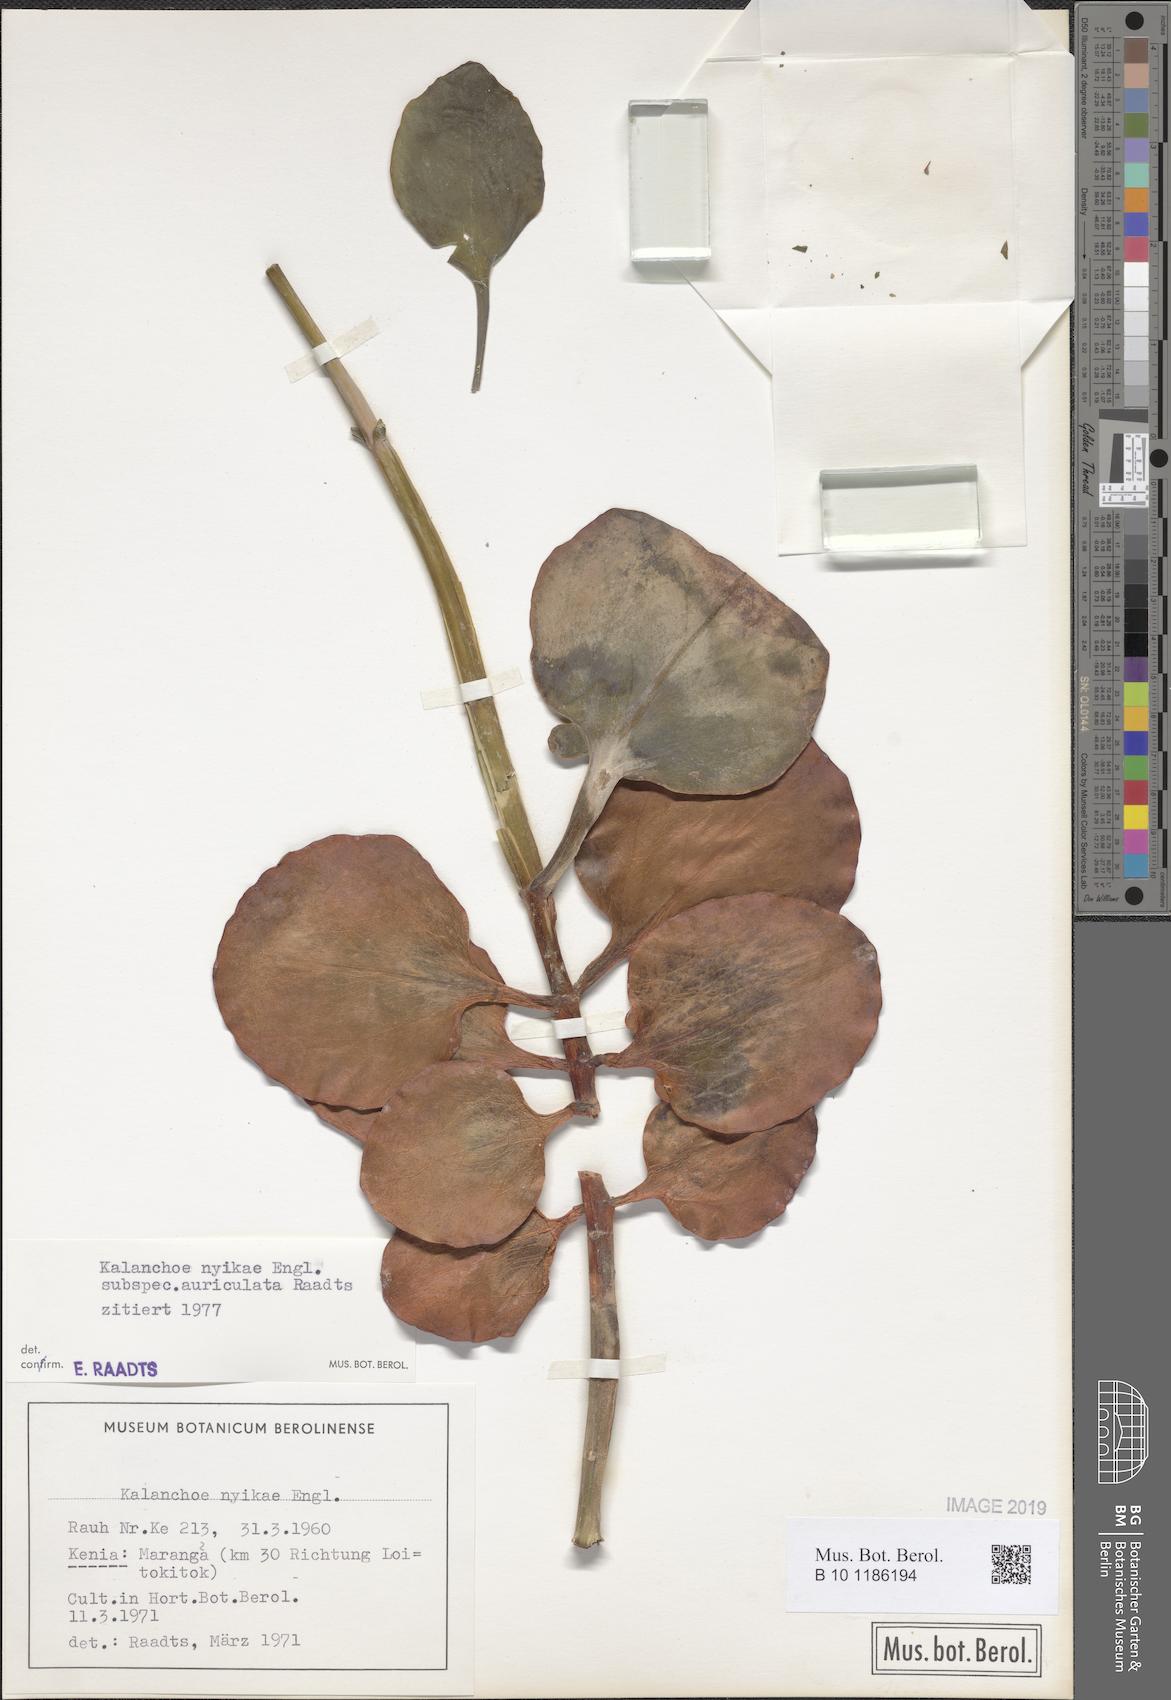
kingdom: Plantae
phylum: Tracheophyta
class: Magnoliopsida
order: Saxifragales
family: Crassulaceae
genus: Kalanchoe
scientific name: Kalanchoe auriculata
